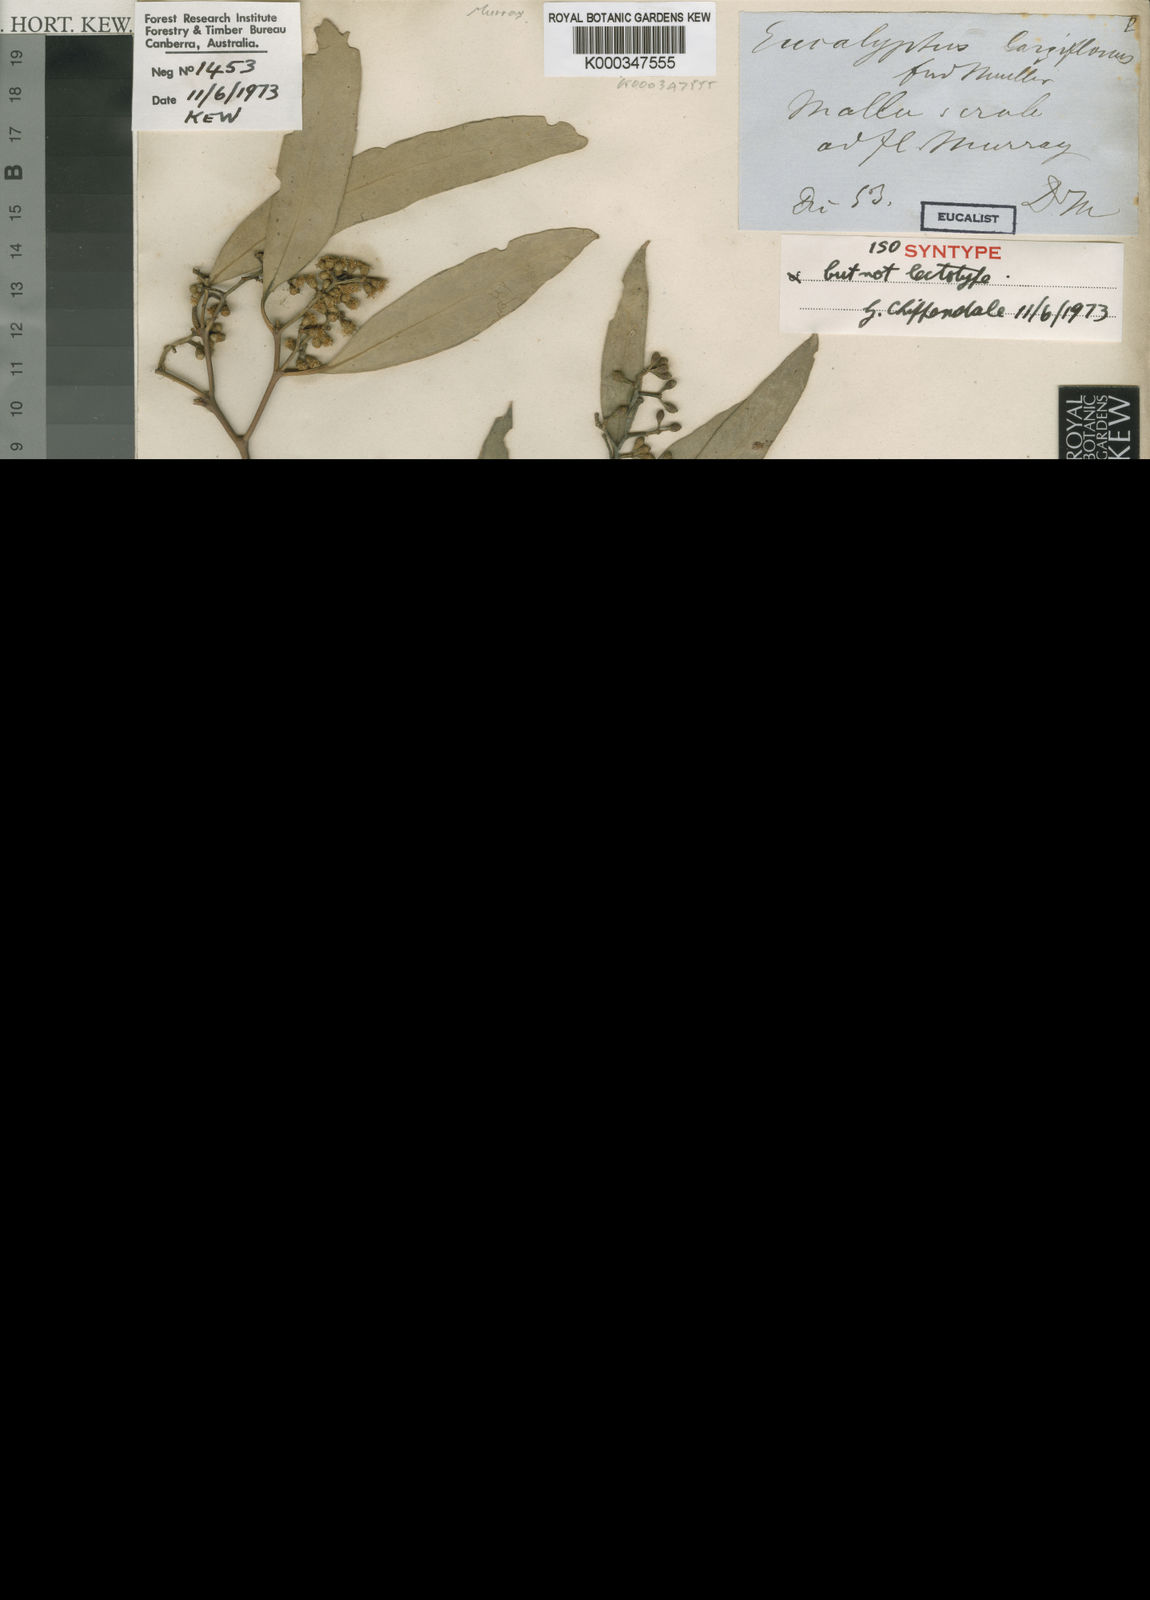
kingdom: Plantae
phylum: Tracheophyta
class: Magnoliopsida
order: Myrtales
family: Myrtaceae
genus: Eucalyptus
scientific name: Eucalyptus largiflorens
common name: Black-box
